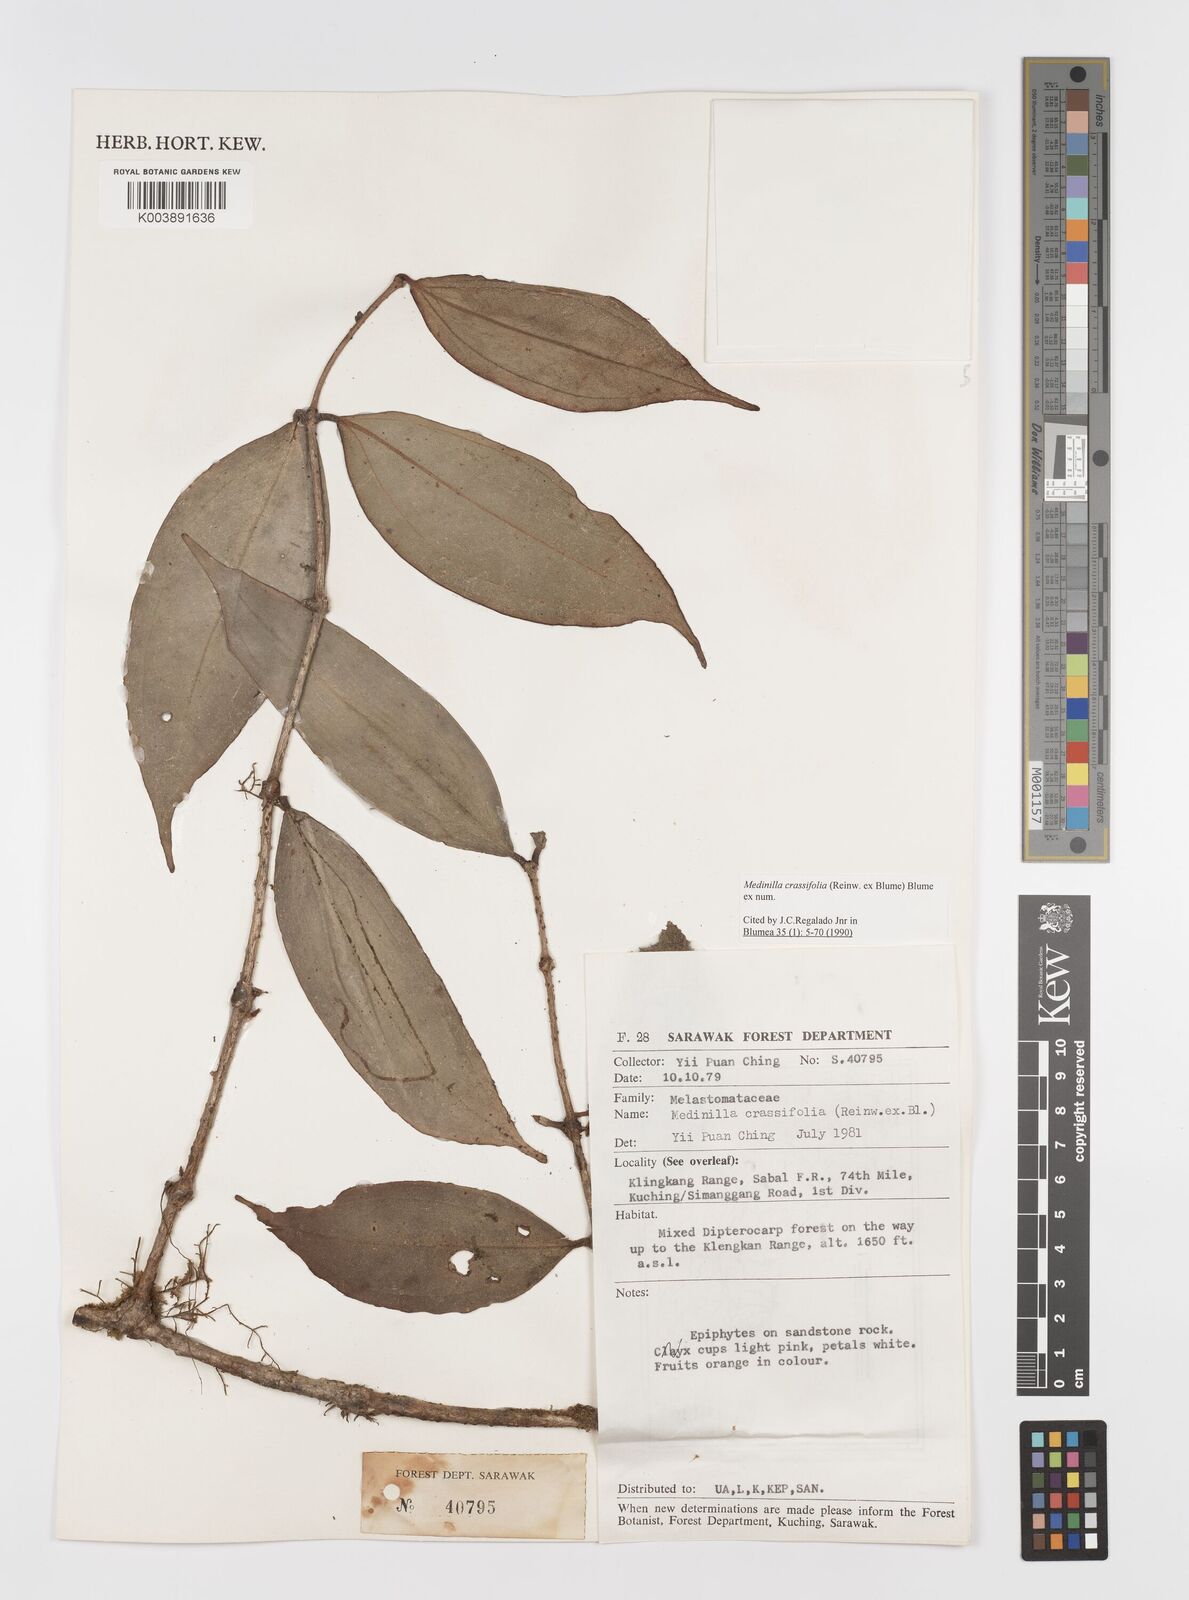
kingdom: Plantae
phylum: Tracheophyta
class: Magnoliopsida
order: Myrtales
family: Melastomataceae
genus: Medinilla
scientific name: Medinilla crassifolia
